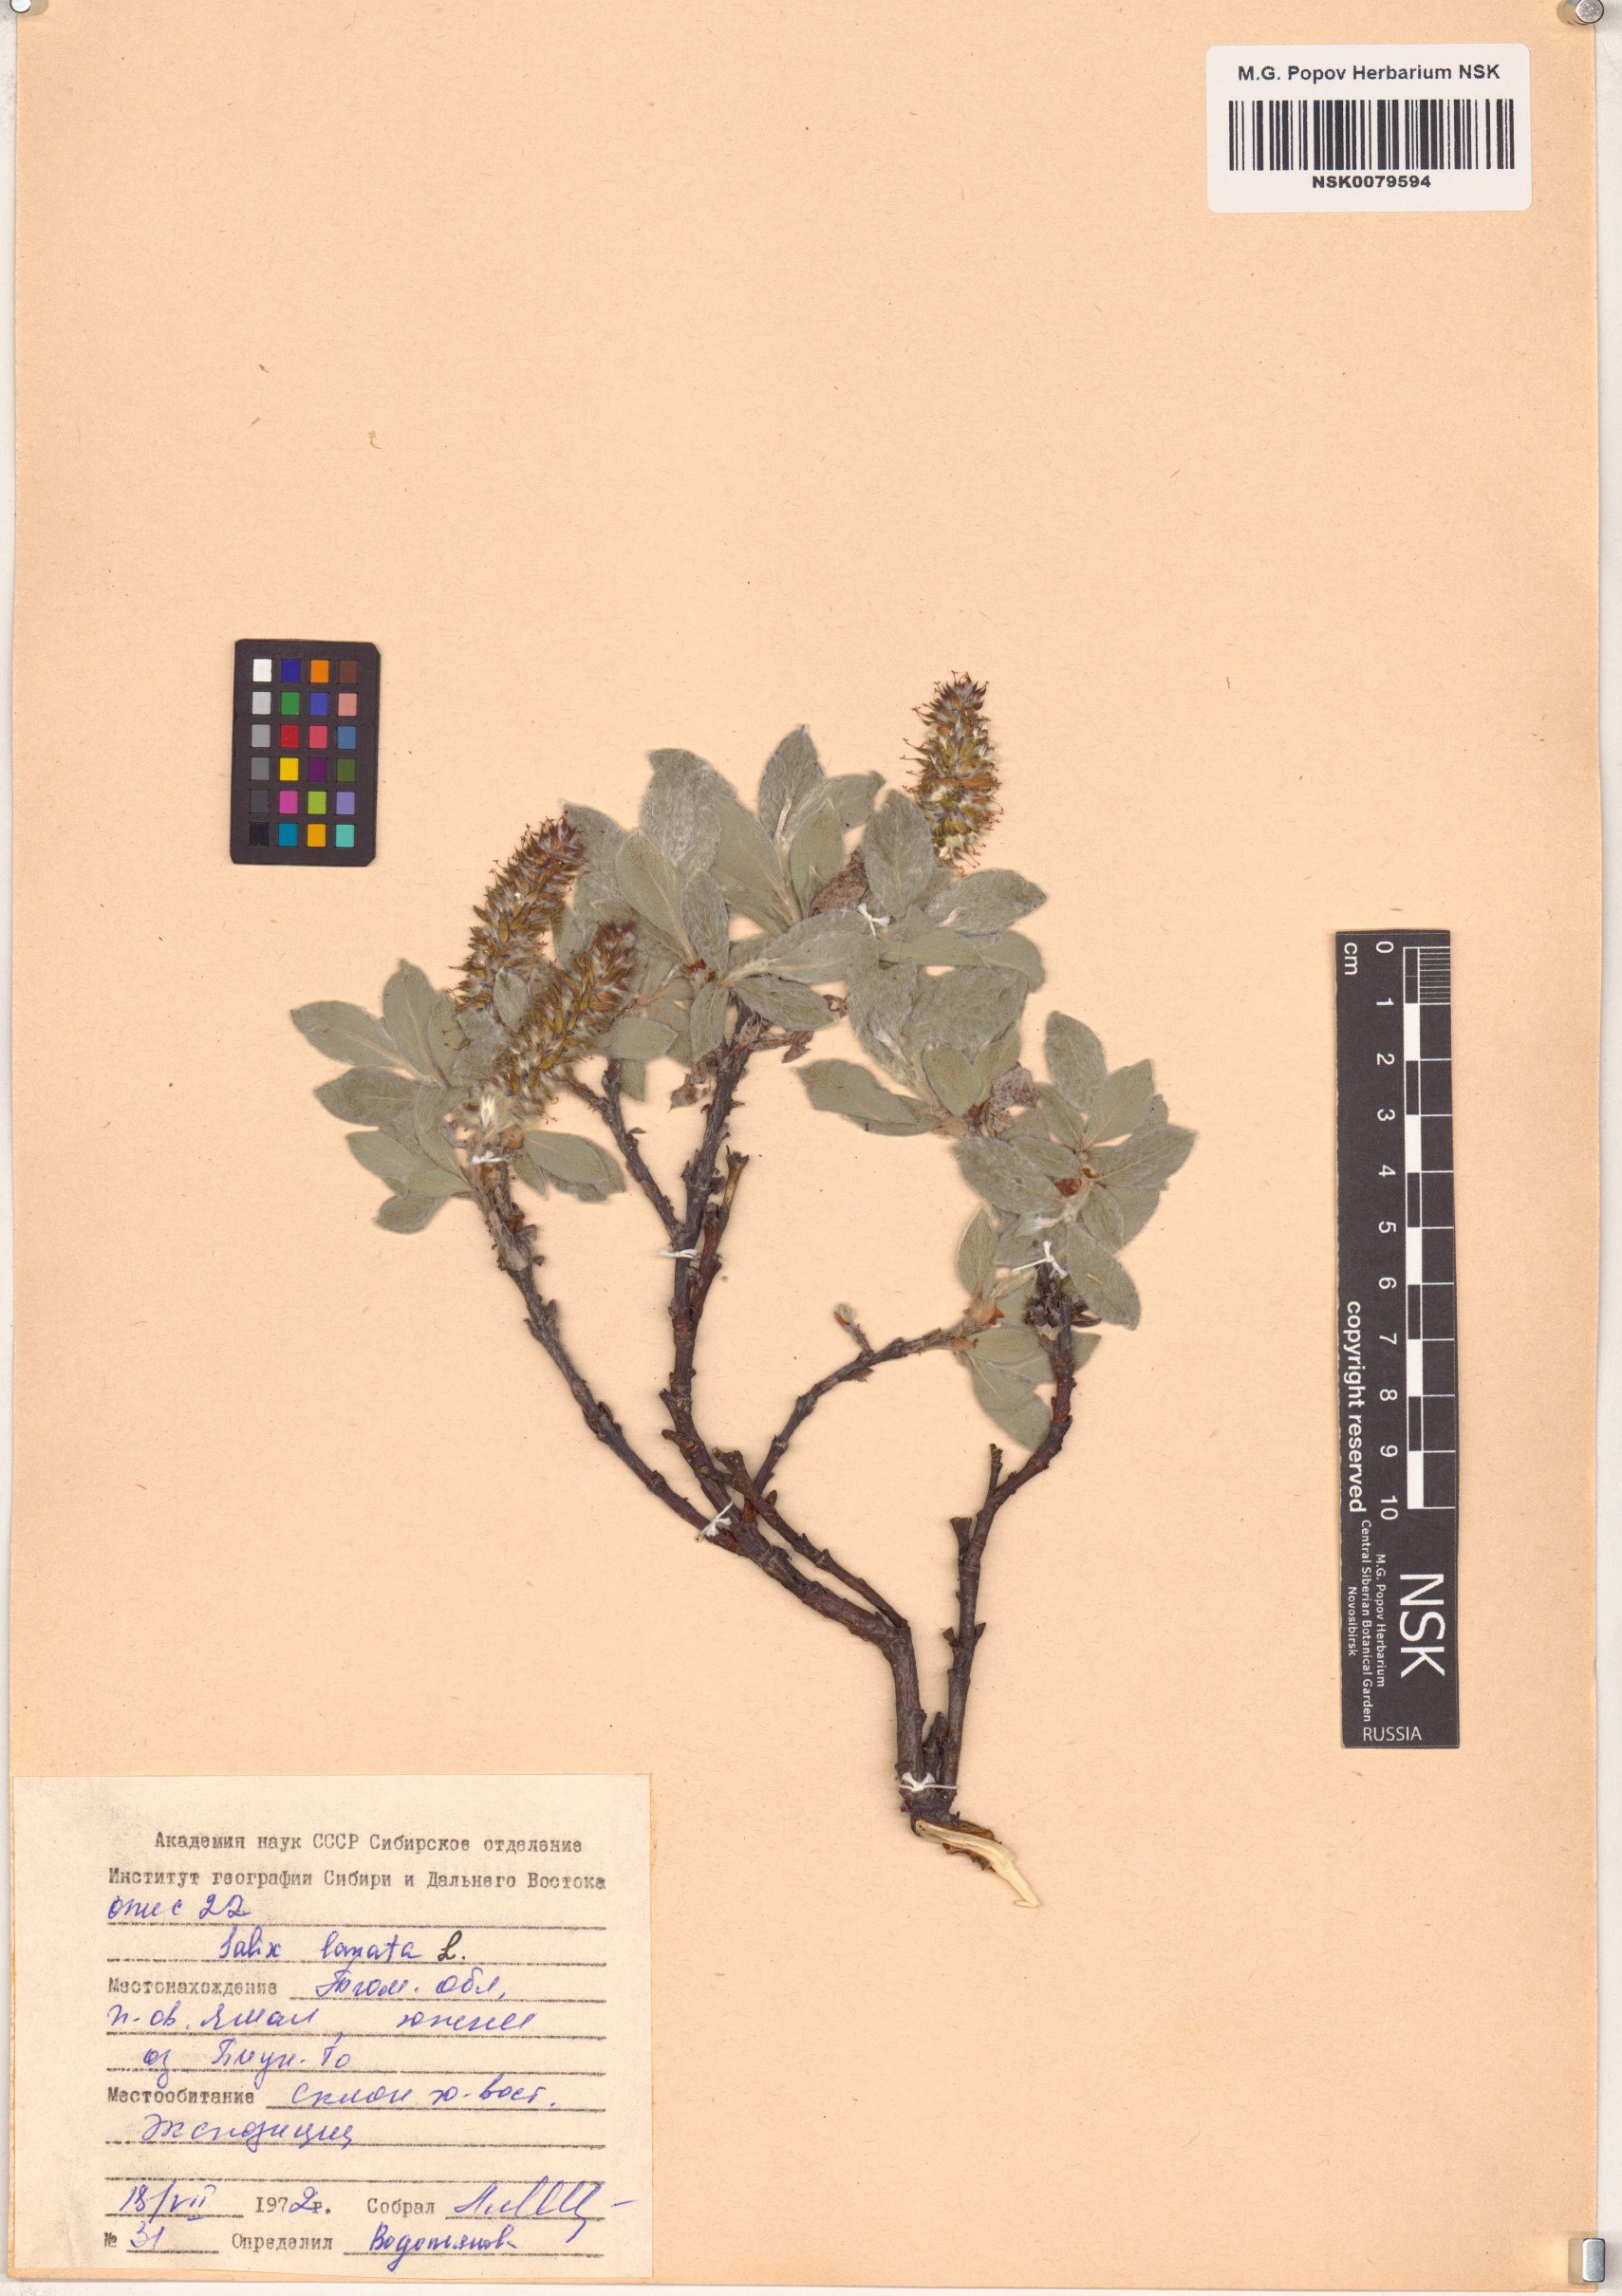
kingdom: Plantae
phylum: Tracheophyta
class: Magnoliopsida
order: Malpighiales
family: Salicaceae
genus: Salix
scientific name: Salix lanata
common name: Woolly willow
